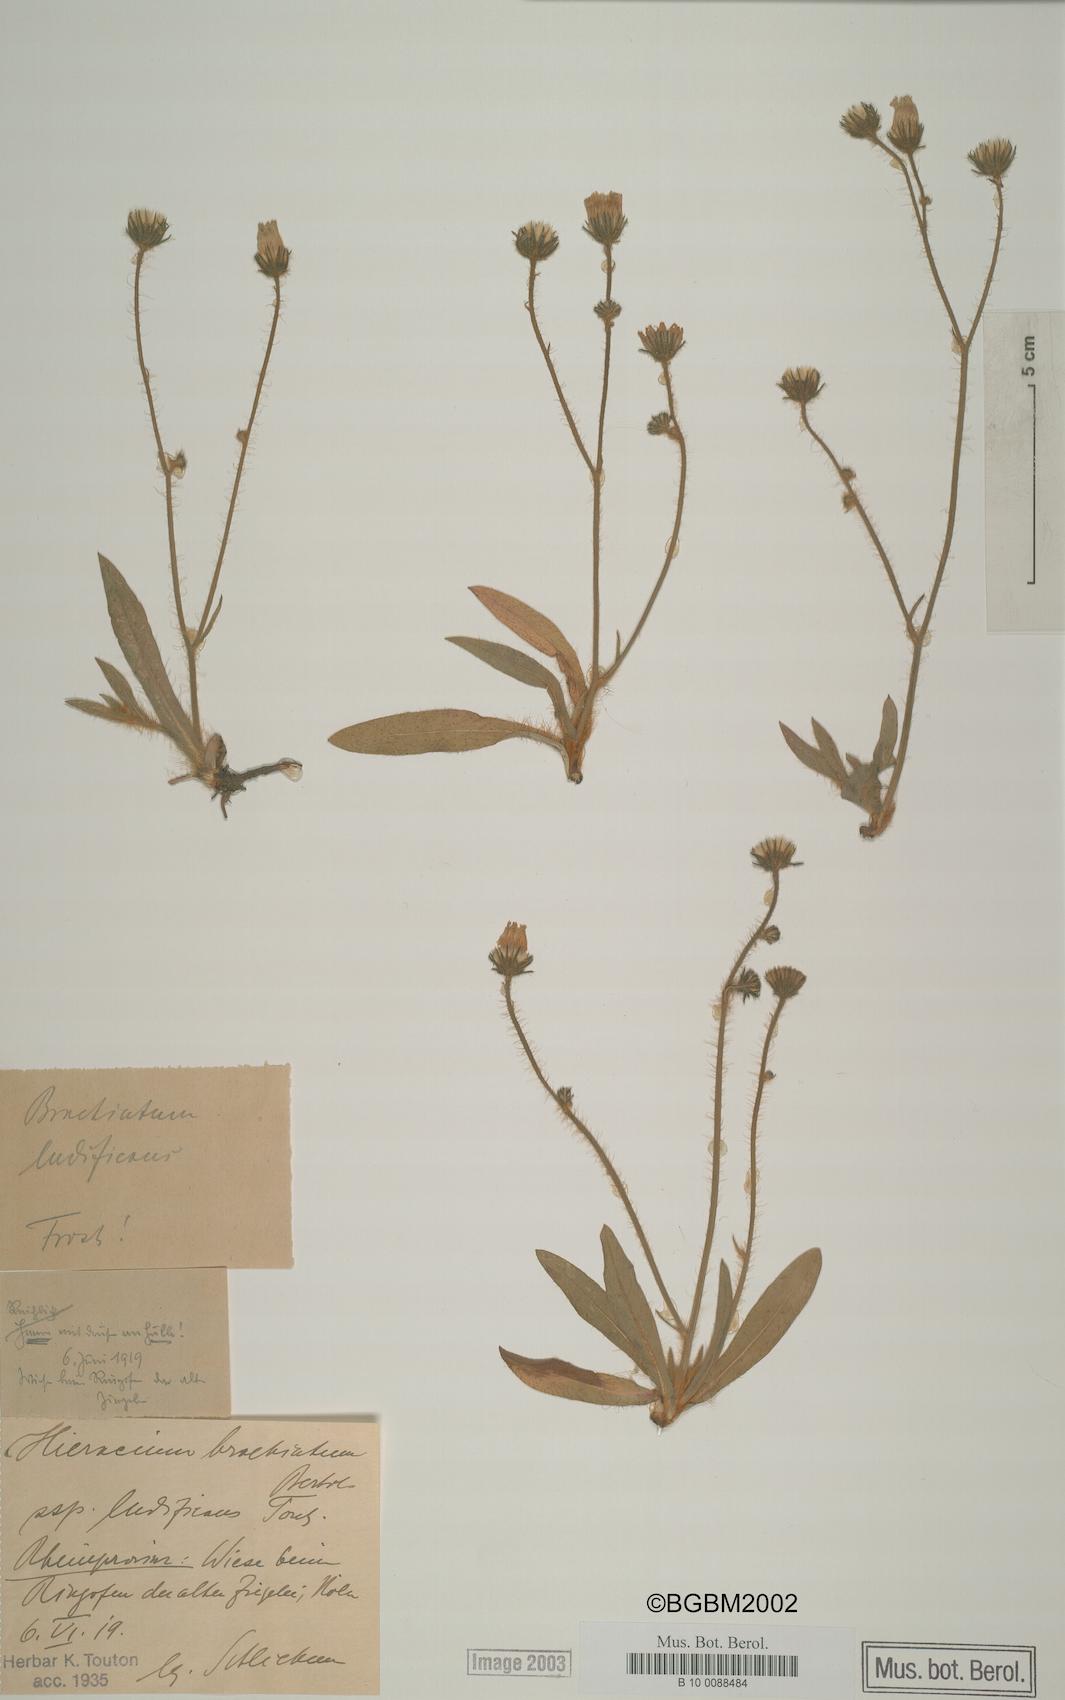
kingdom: Plantae
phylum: Tracheophyta
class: Magnoliopsida
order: Asterales
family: Asteraceae
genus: Pilosella
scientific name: Pilosella acutifolia
